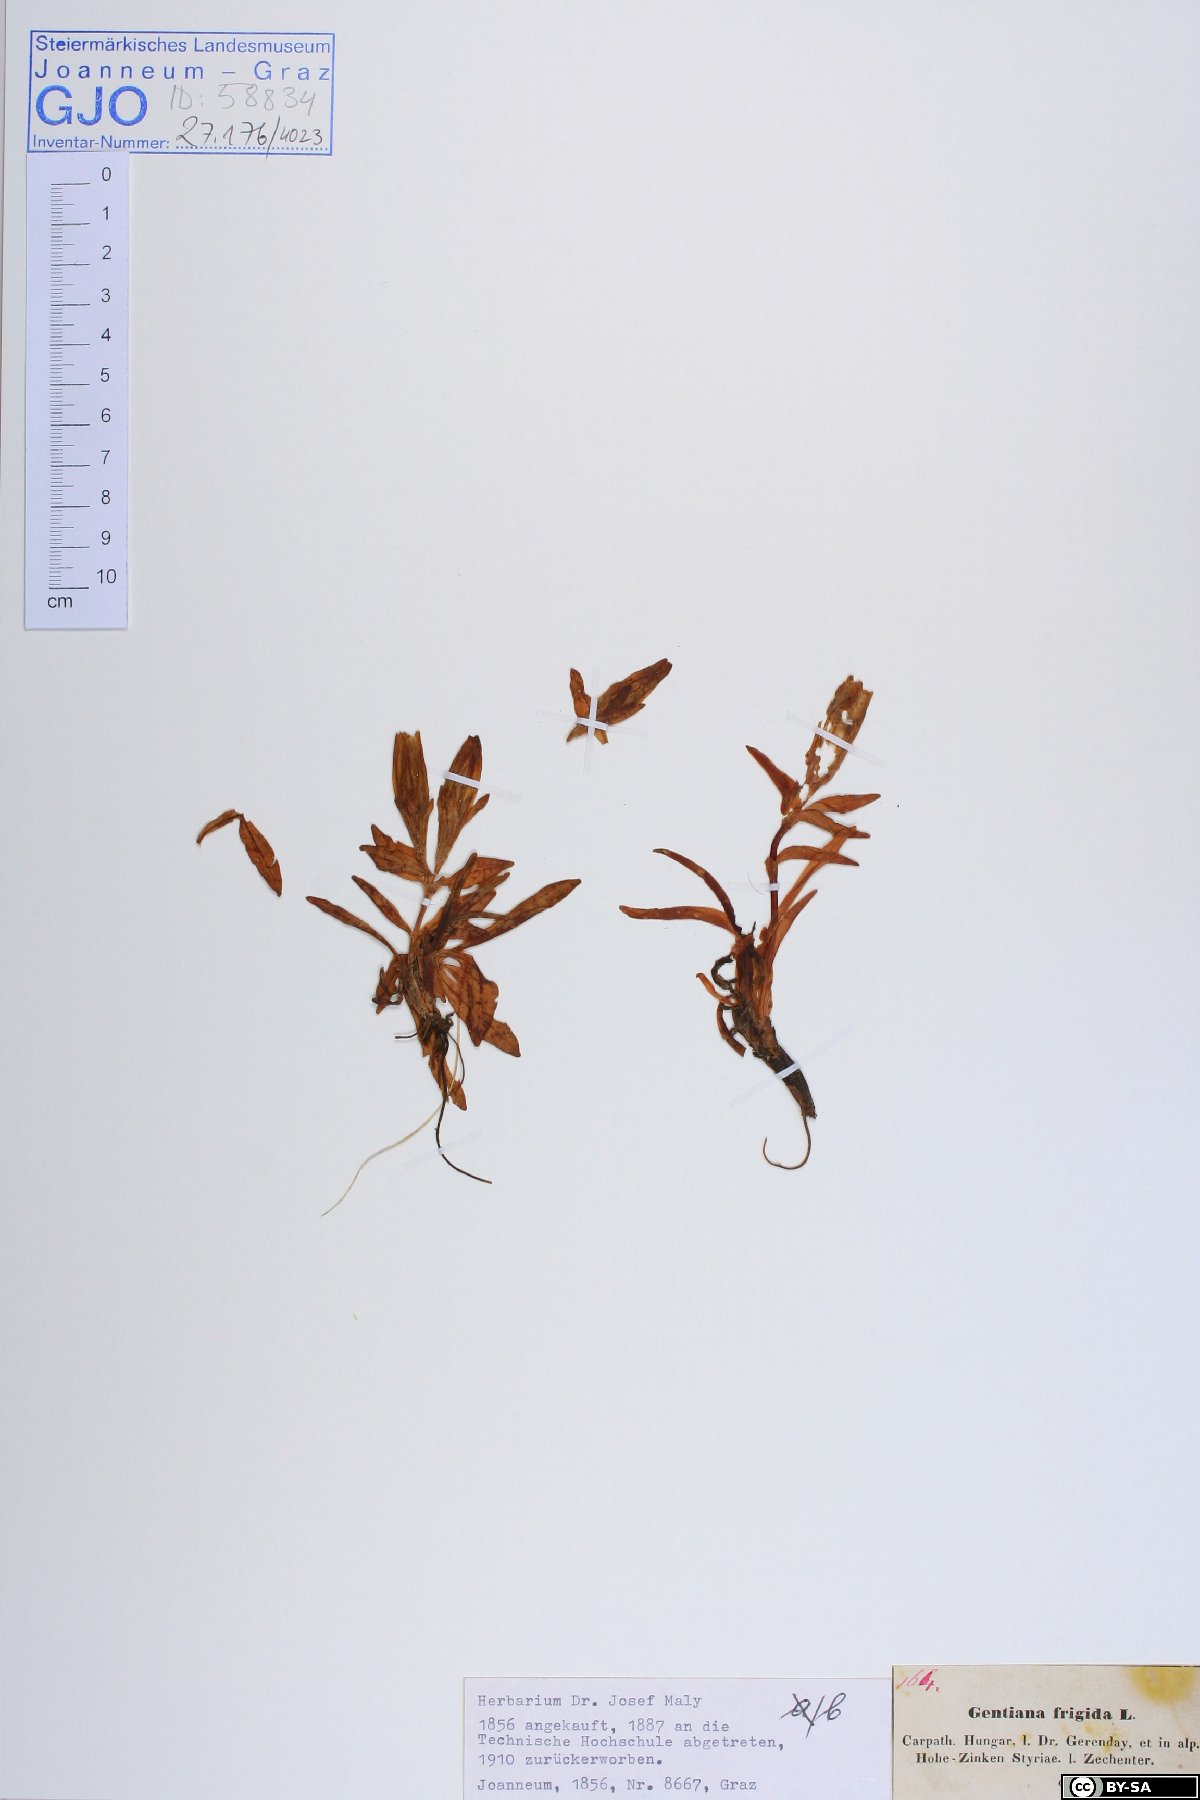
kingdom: Plantae
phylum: Tracheophyta
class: Magnoliopsida
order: Gentianales
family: Gentianaceae
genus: Gentiana
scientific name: Gentiana frigida
